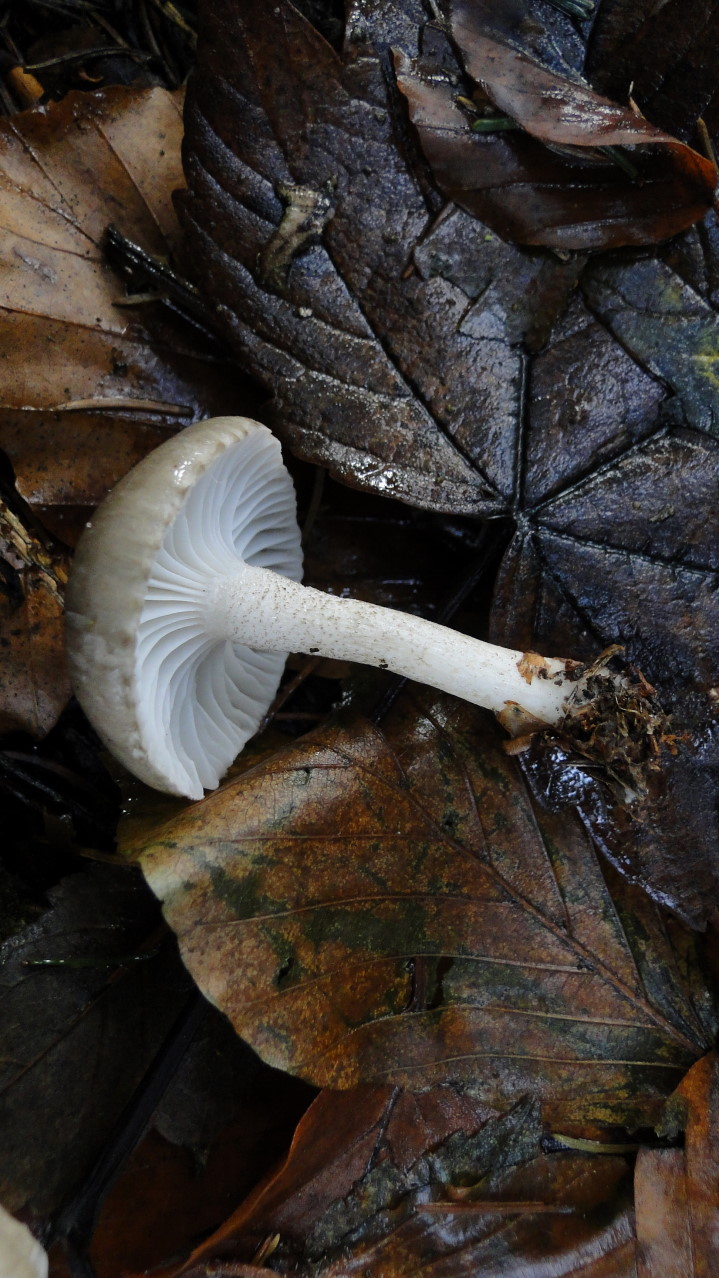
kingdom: Fungi
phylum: Basidiomycota
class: Agaricomycetes
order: Agaricales
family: Hygrophoraceae
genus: Hygrophorus
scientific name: Hygrophorus pustulatus
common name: mørkprikket sneglehat
